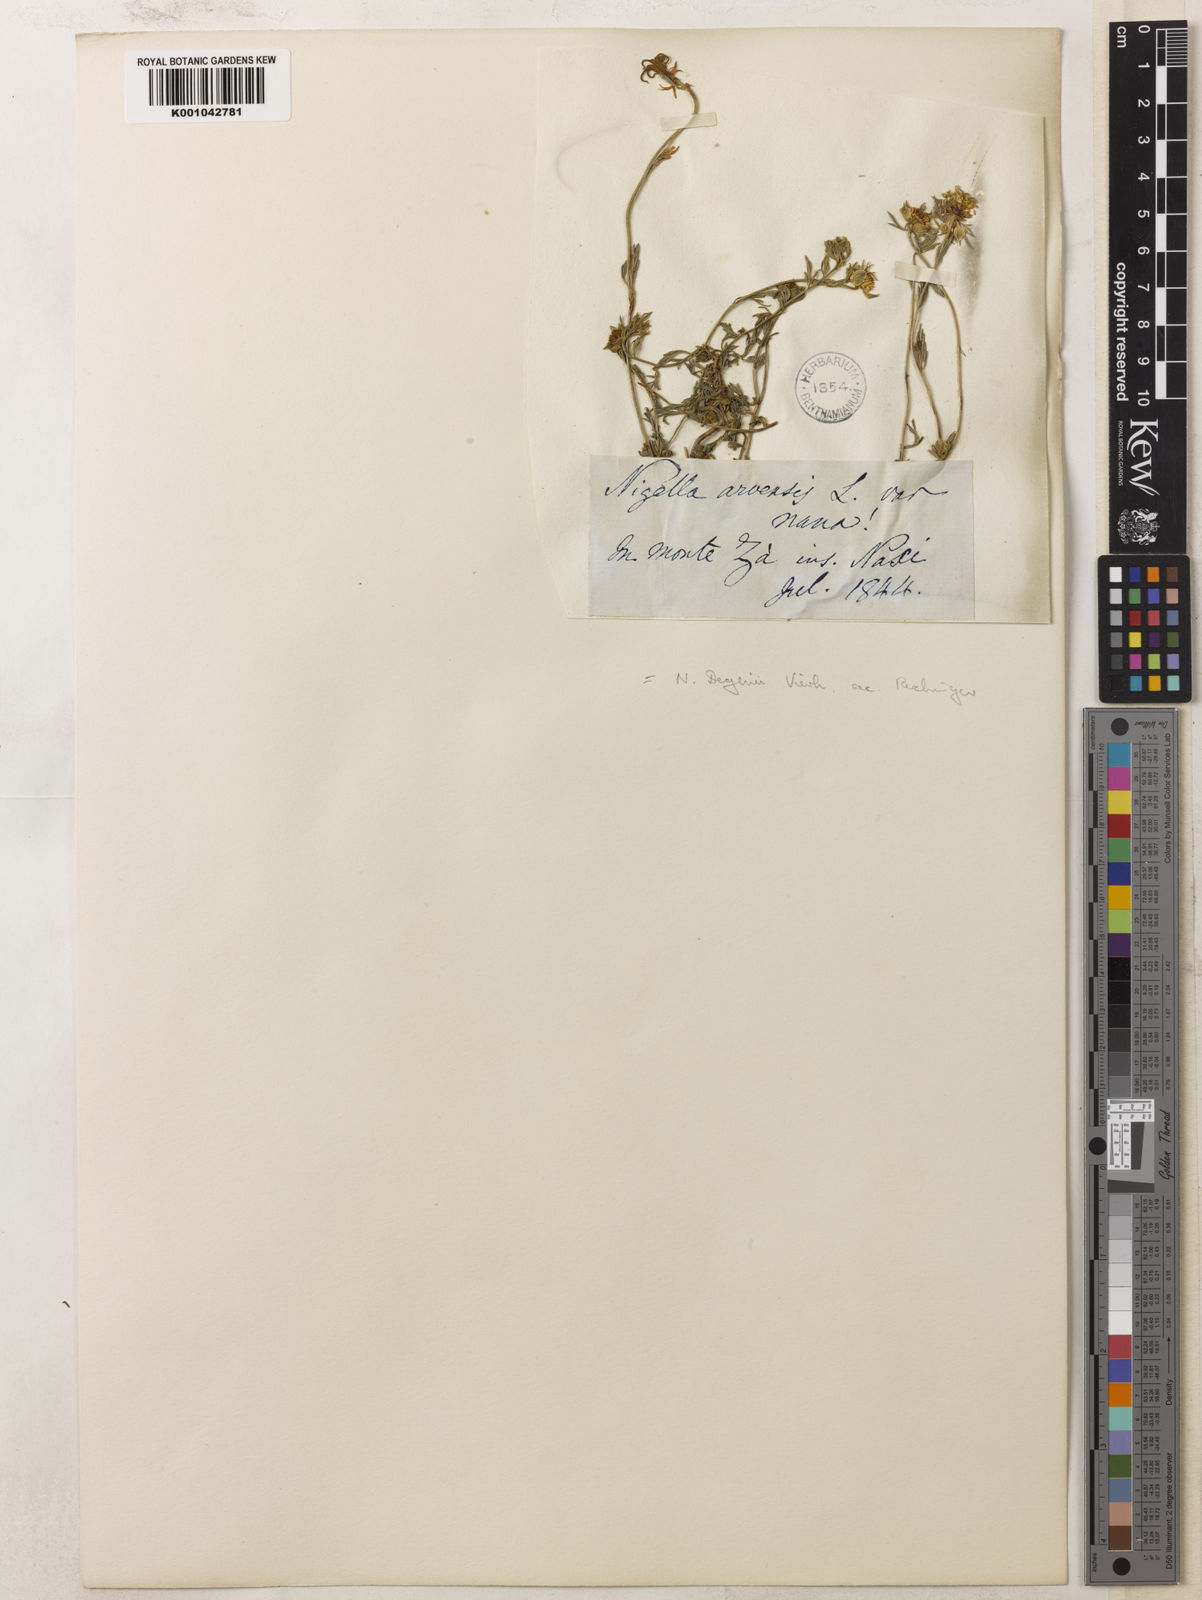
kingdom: Plantae
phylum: Tracheophyta
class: Magnoliopsida
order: Ranunculales
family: Ranunculaceae
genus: Nigella
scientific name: Nigella degenii
